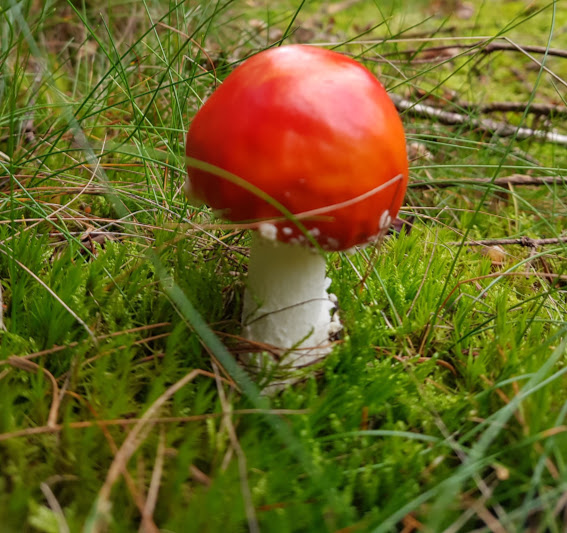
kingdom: Fungi
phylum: Basidiomycota
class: Agaricomycetes
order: Agaricales
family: Amanitaceae
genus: Amanita
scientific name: Amanita muscaria
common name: rød fluesvamp
